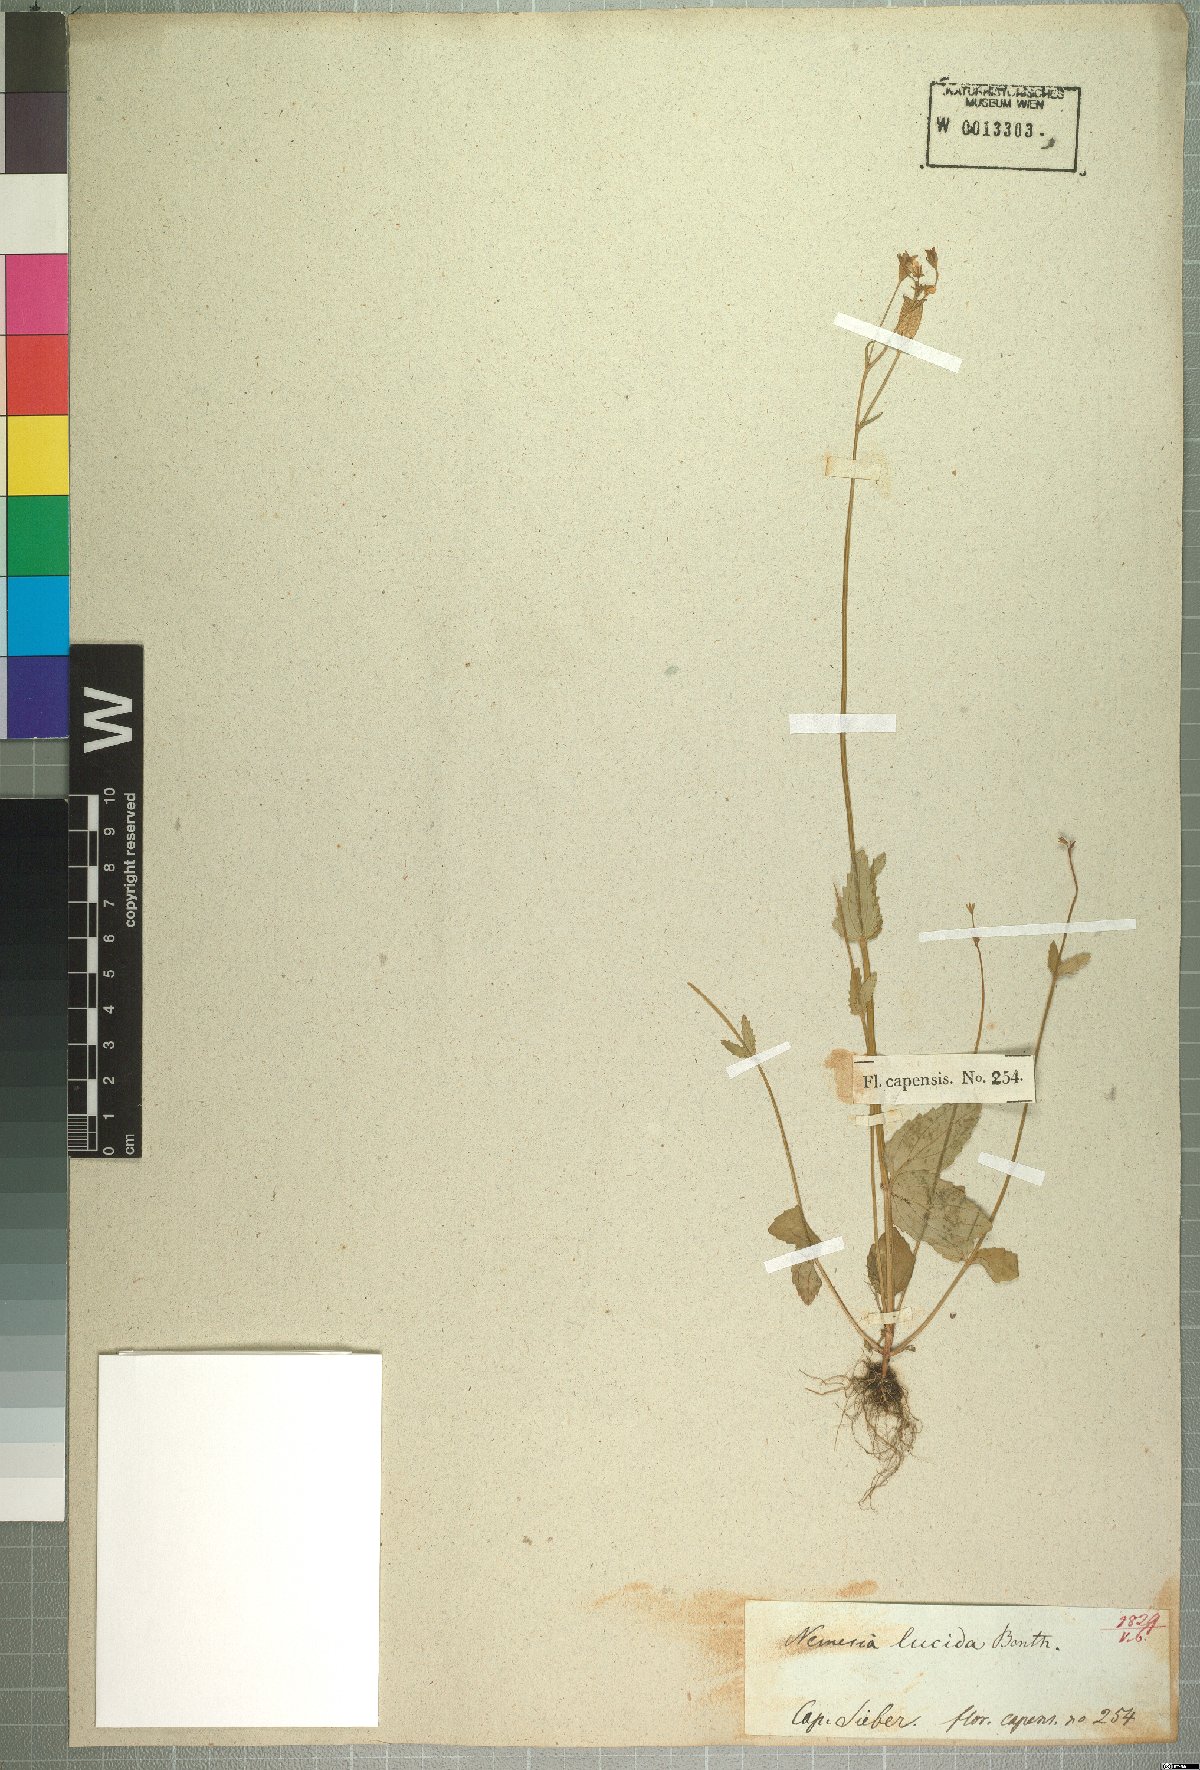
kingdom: Plantae
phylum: Tracheophyta
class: Magnoliopsida
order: Lamiales
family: Scrophulariaceae
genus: Nemesia
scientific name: Nemesia lucida
